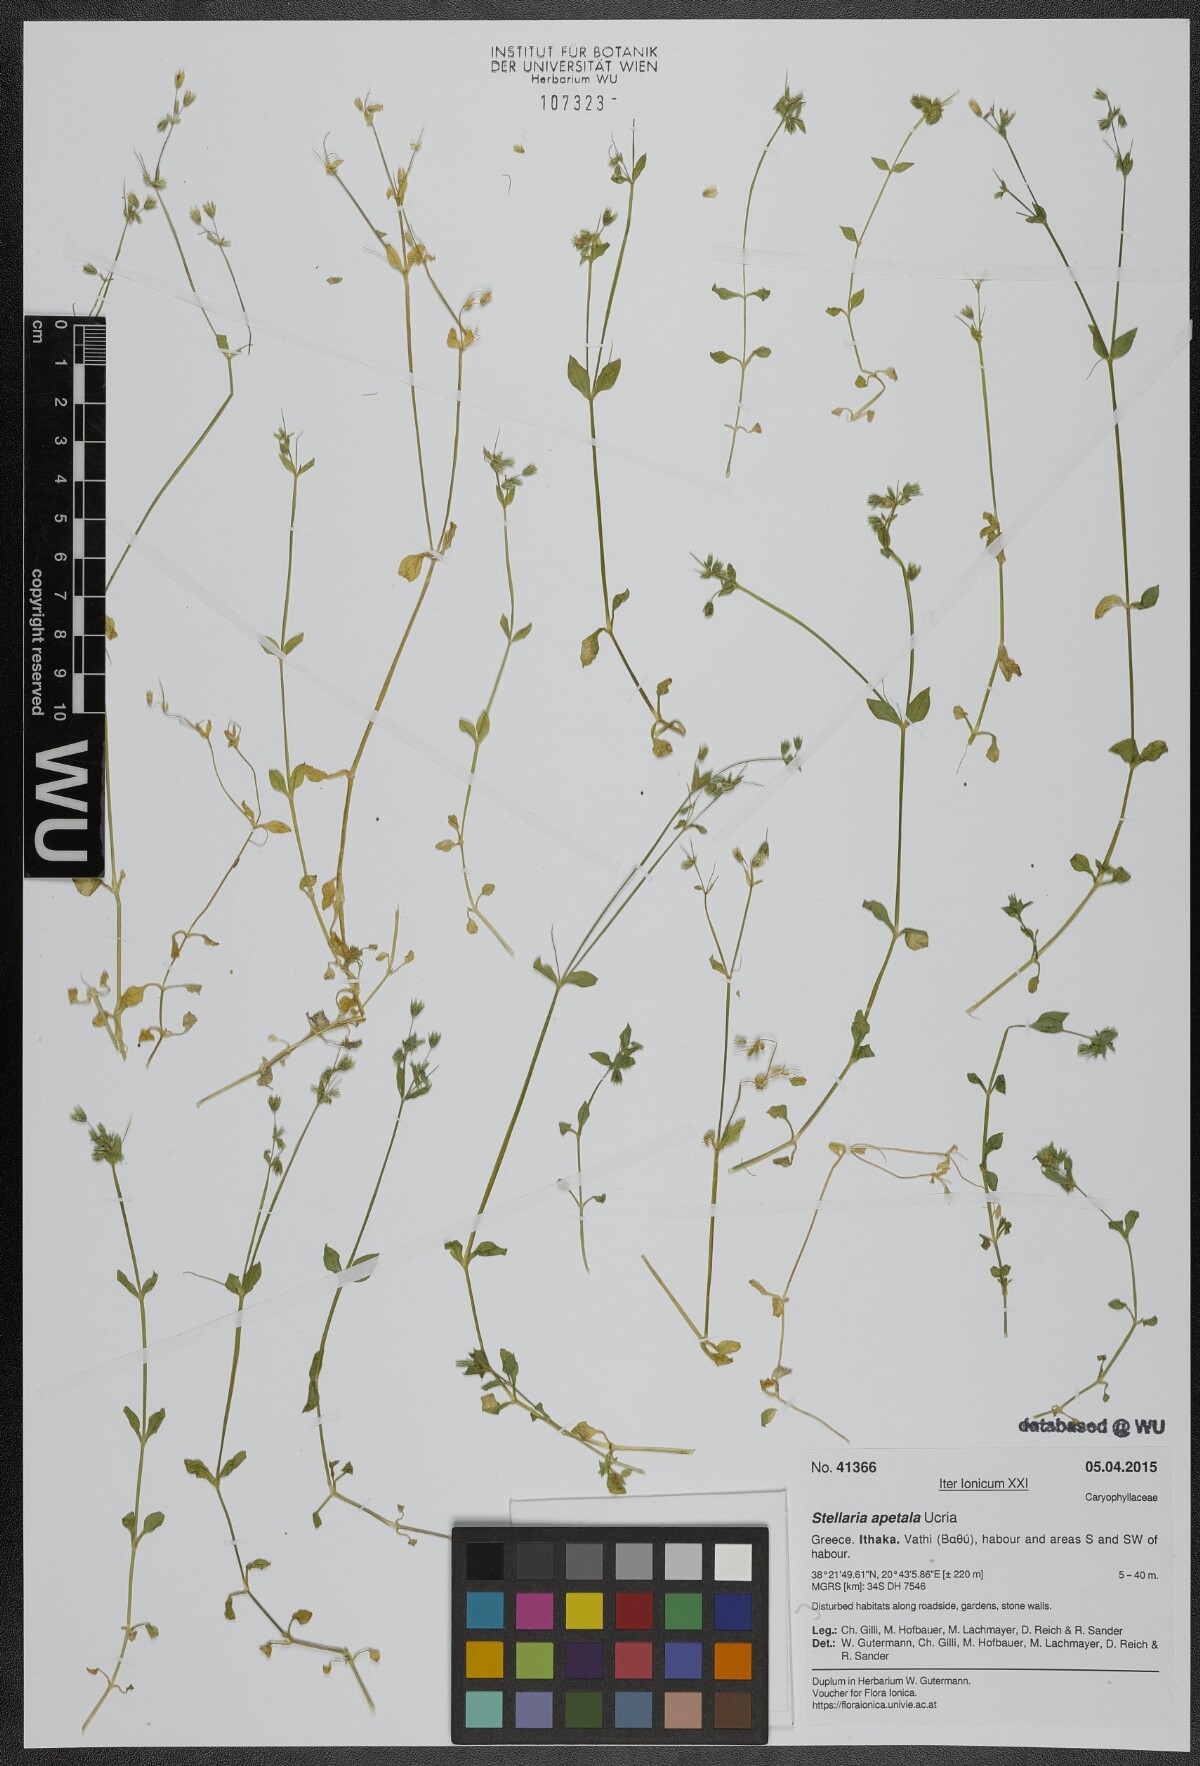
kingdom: Plantae
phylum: Tracheophyta
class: Magnoliopsida
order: Caryophyllales
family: Caryophyllaceae
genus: Stellaria
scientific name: Stellaria apetala
